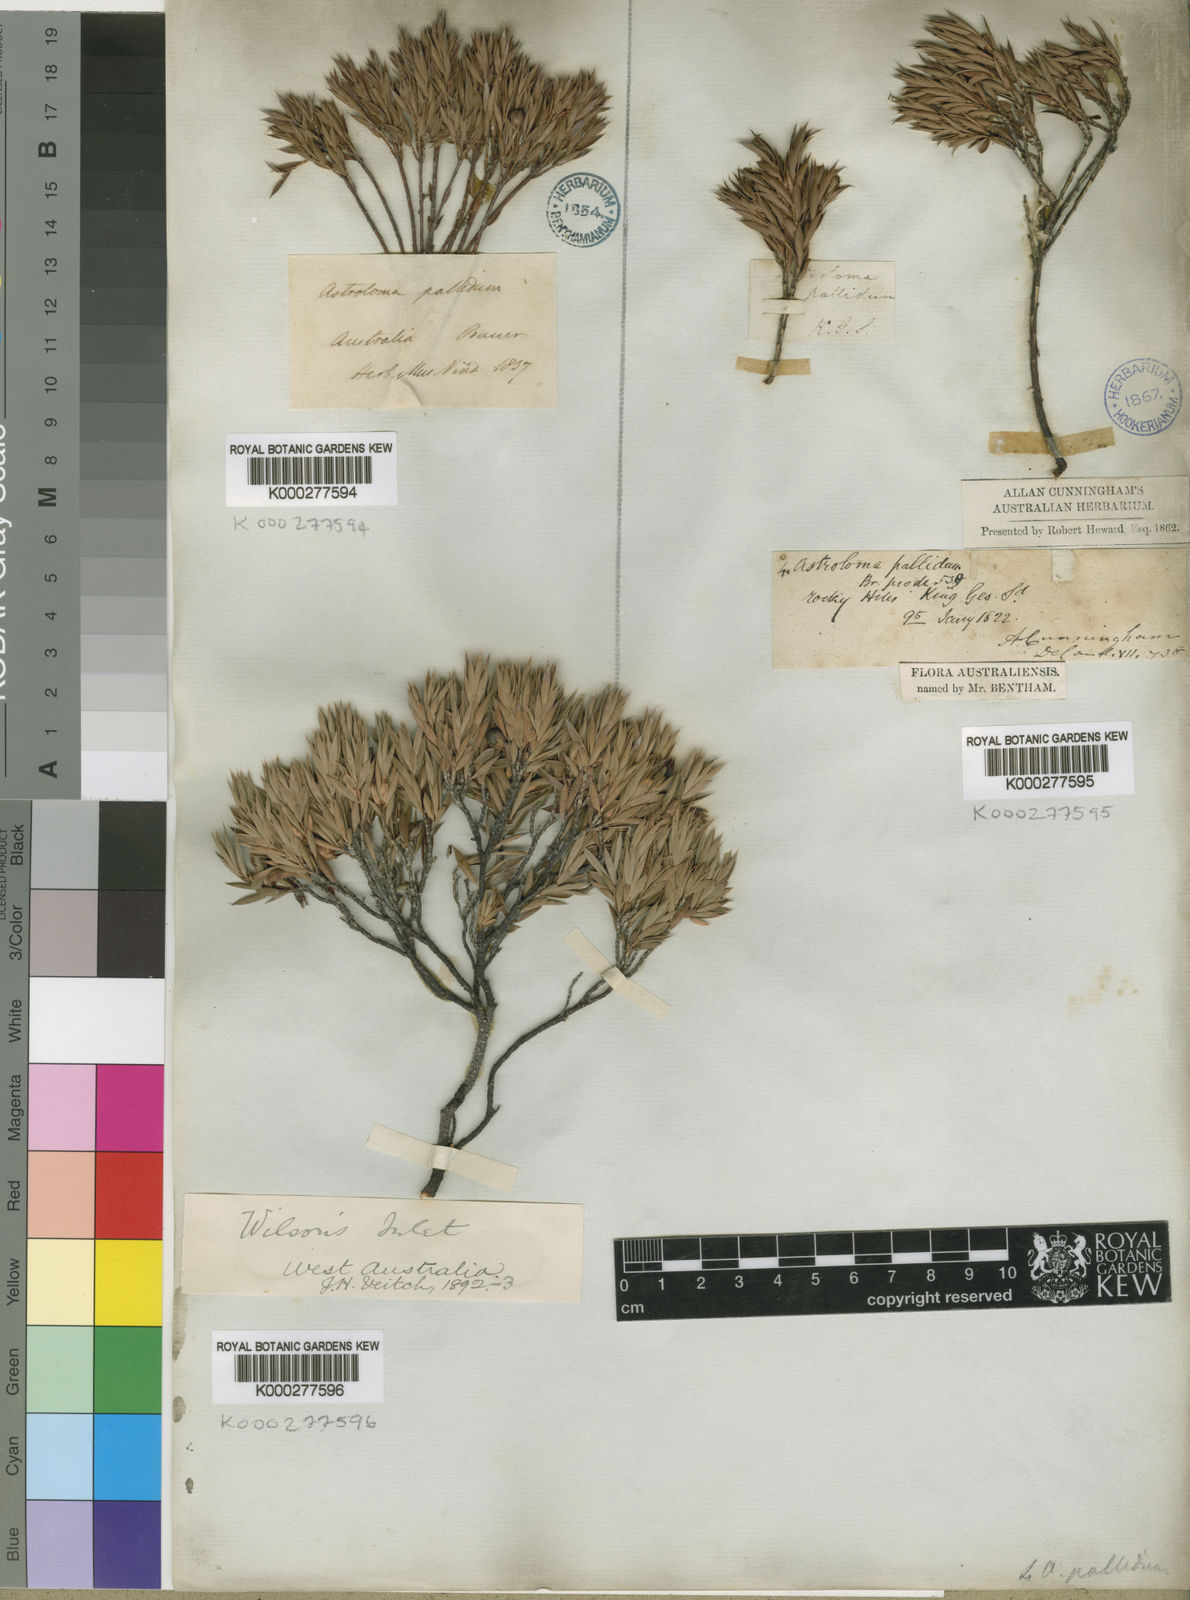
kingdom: Plantae
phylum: Tracheophyta
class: Magnoliopsida
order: Ericales
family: Ericaceae
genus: Styphelia
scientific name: Styphelia pallida
